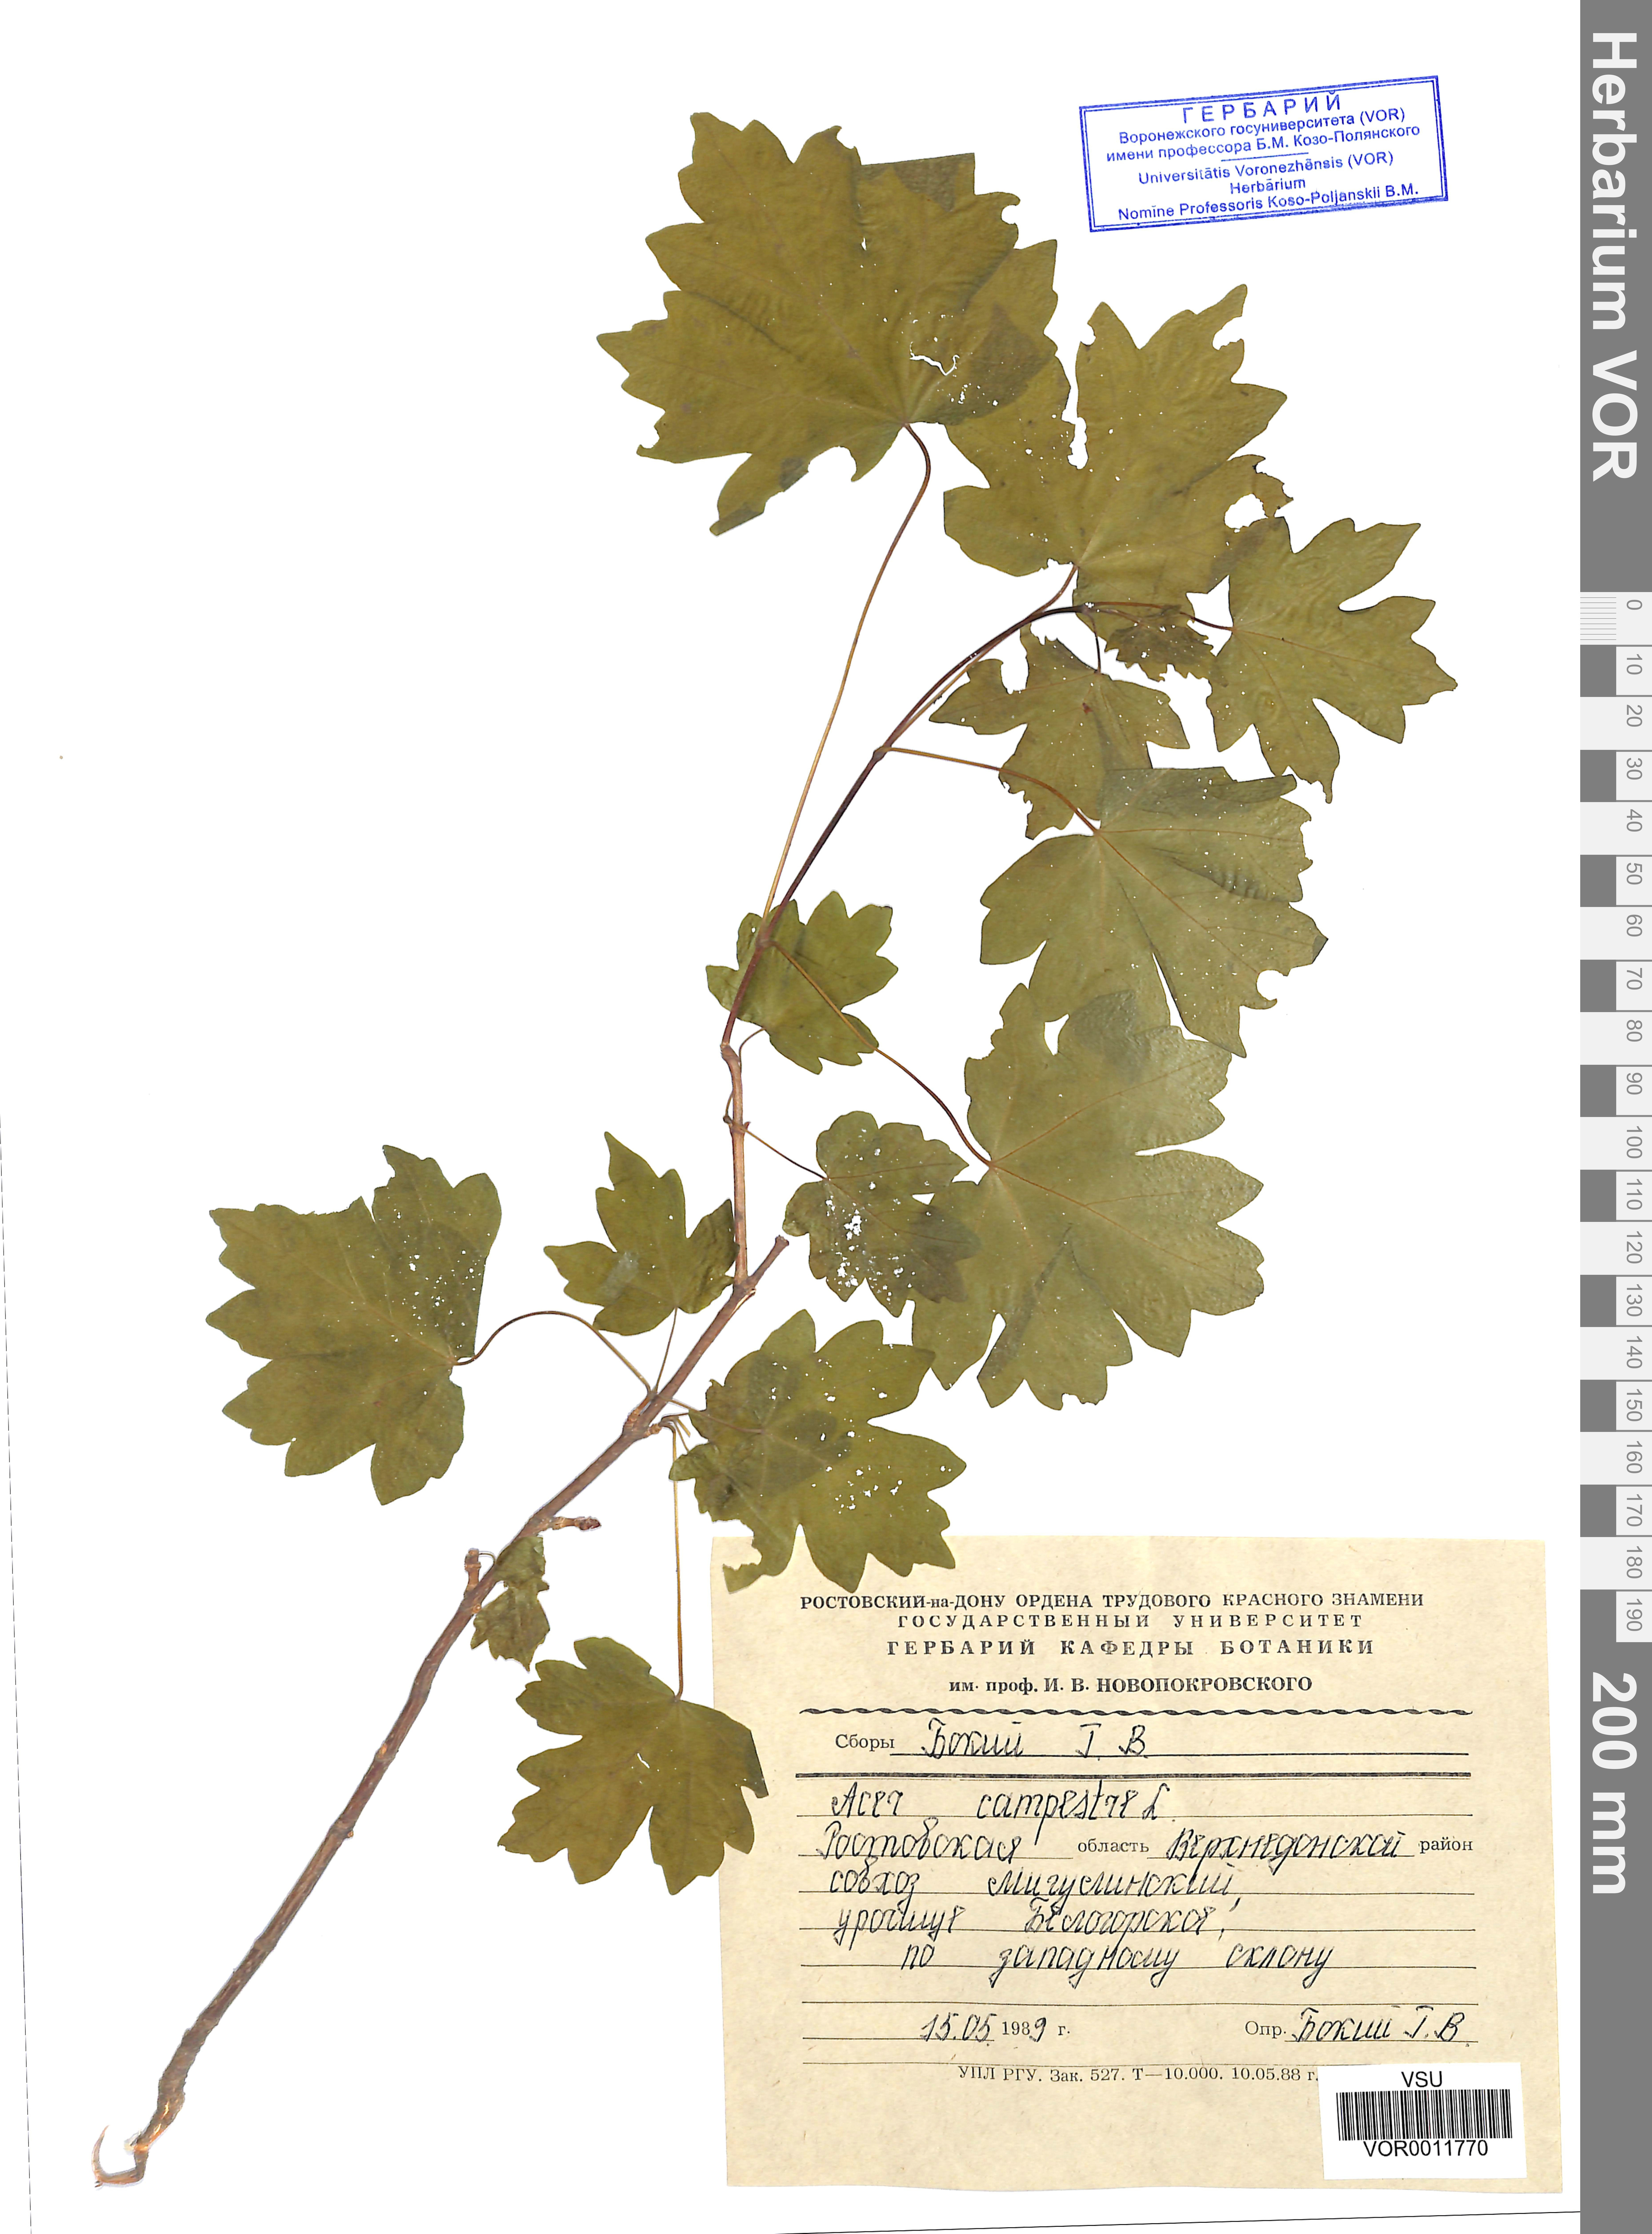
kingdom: Plantae
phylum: Tracheophyta
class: Magnoliopsida
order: Sapindales
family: Sapindaceae
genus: Acer
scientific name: Acer campestre
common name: Field maple
